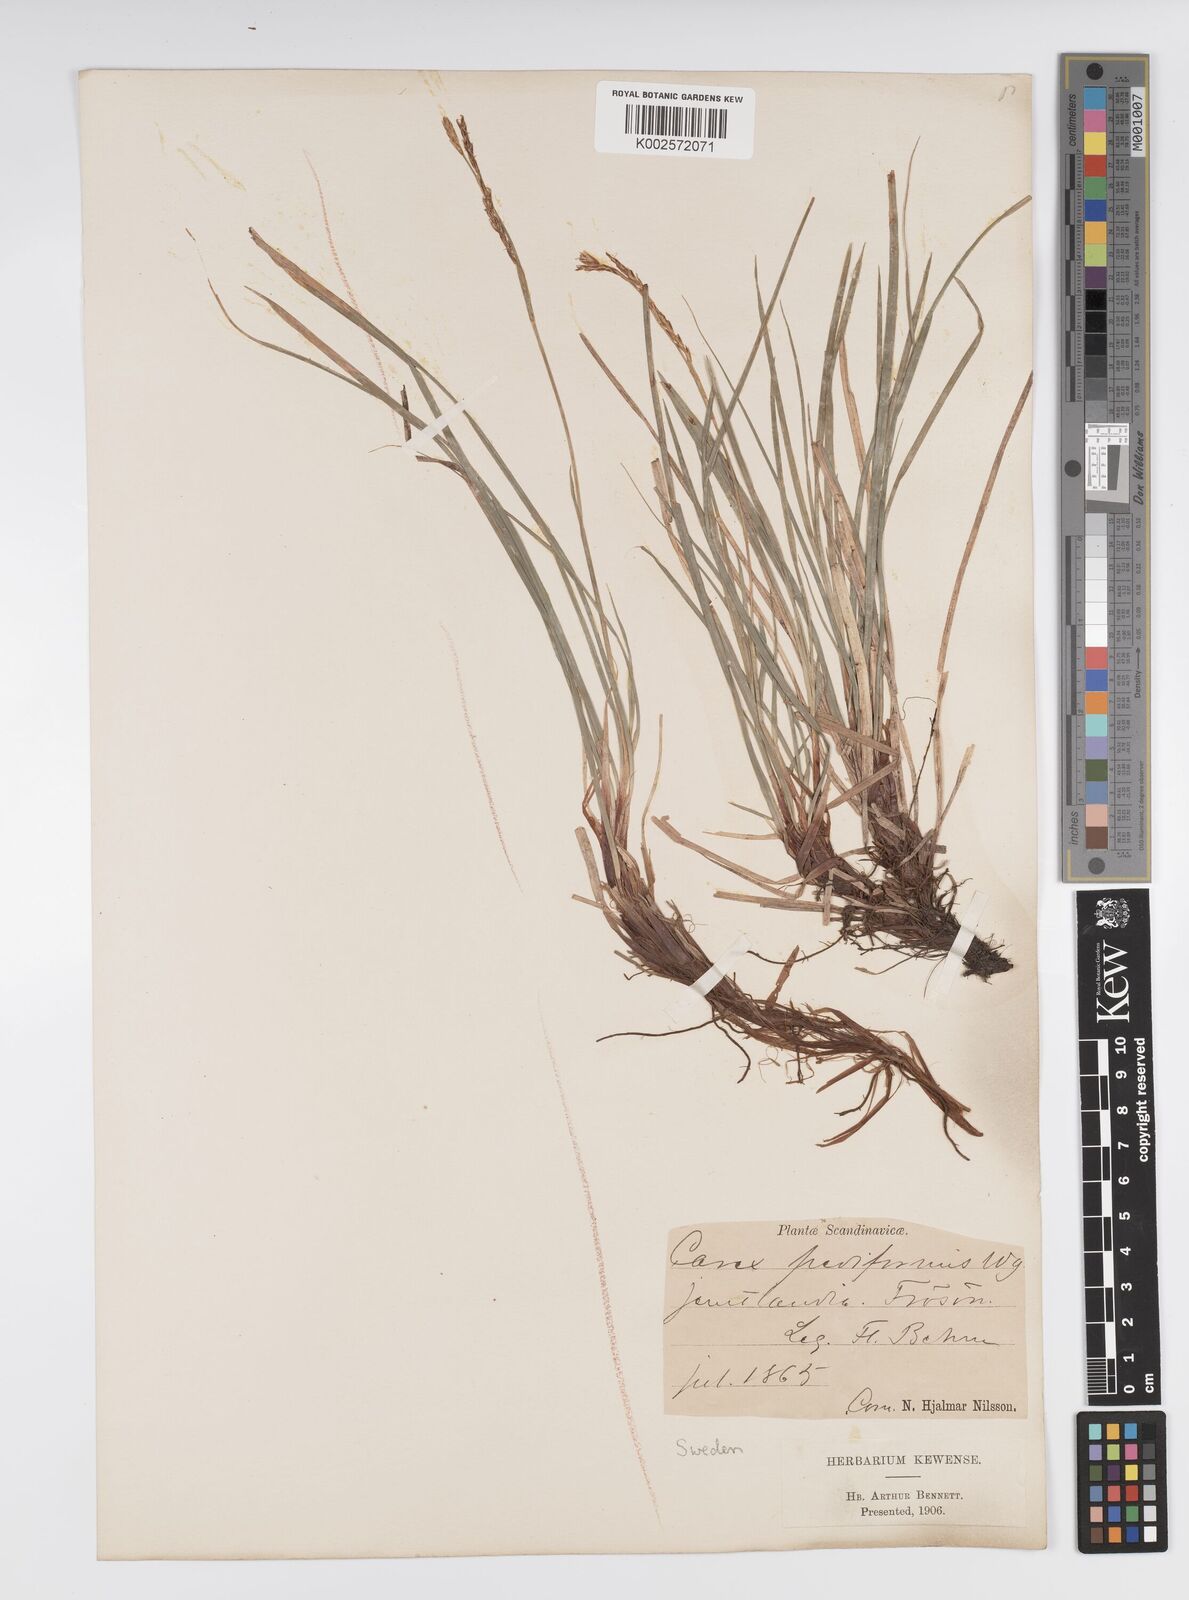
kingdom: Plantae
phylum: Tracheophyta
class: Liliopsida
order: Poales
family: Cyperaceae
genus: Carex
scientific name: Carex pediformis
